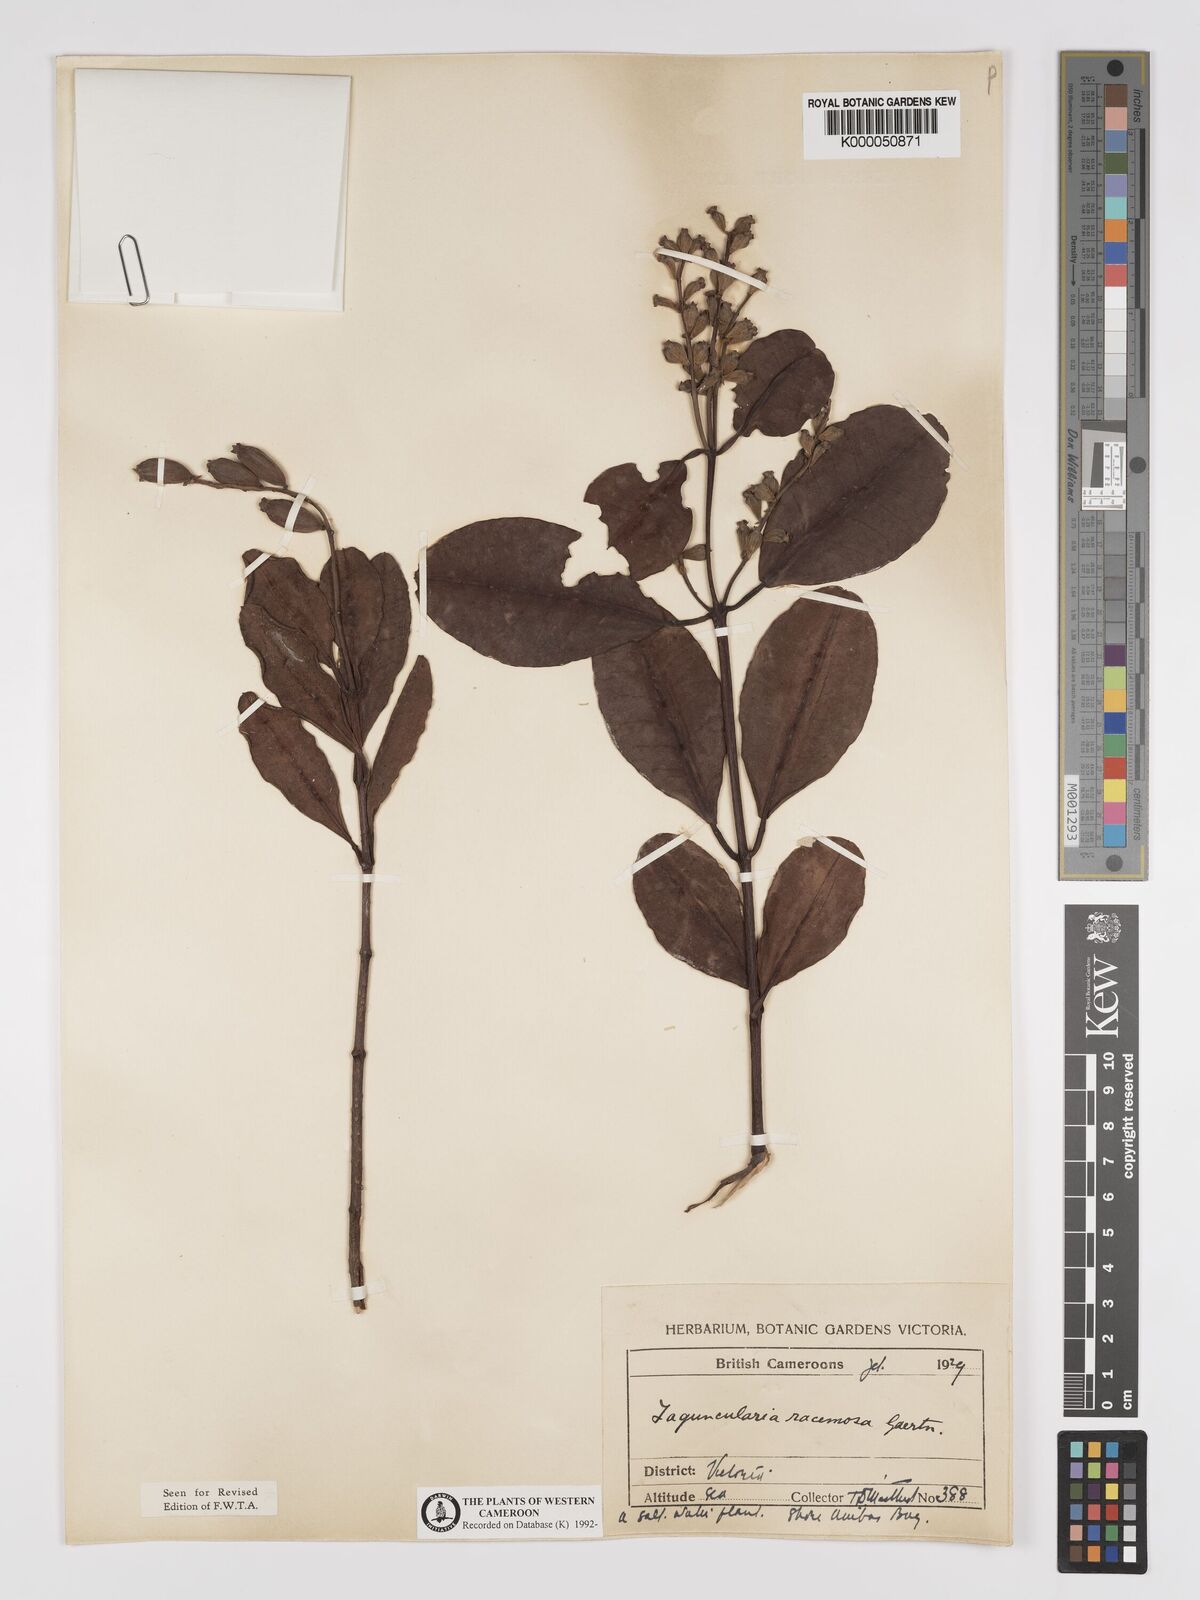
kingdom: Plantae
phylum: Tracheophyta
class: Magnoliopsida
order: Myrtales
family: Combretaceae
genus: Laguncularia
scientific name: Laguncularia racemosa
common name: White mangrove
